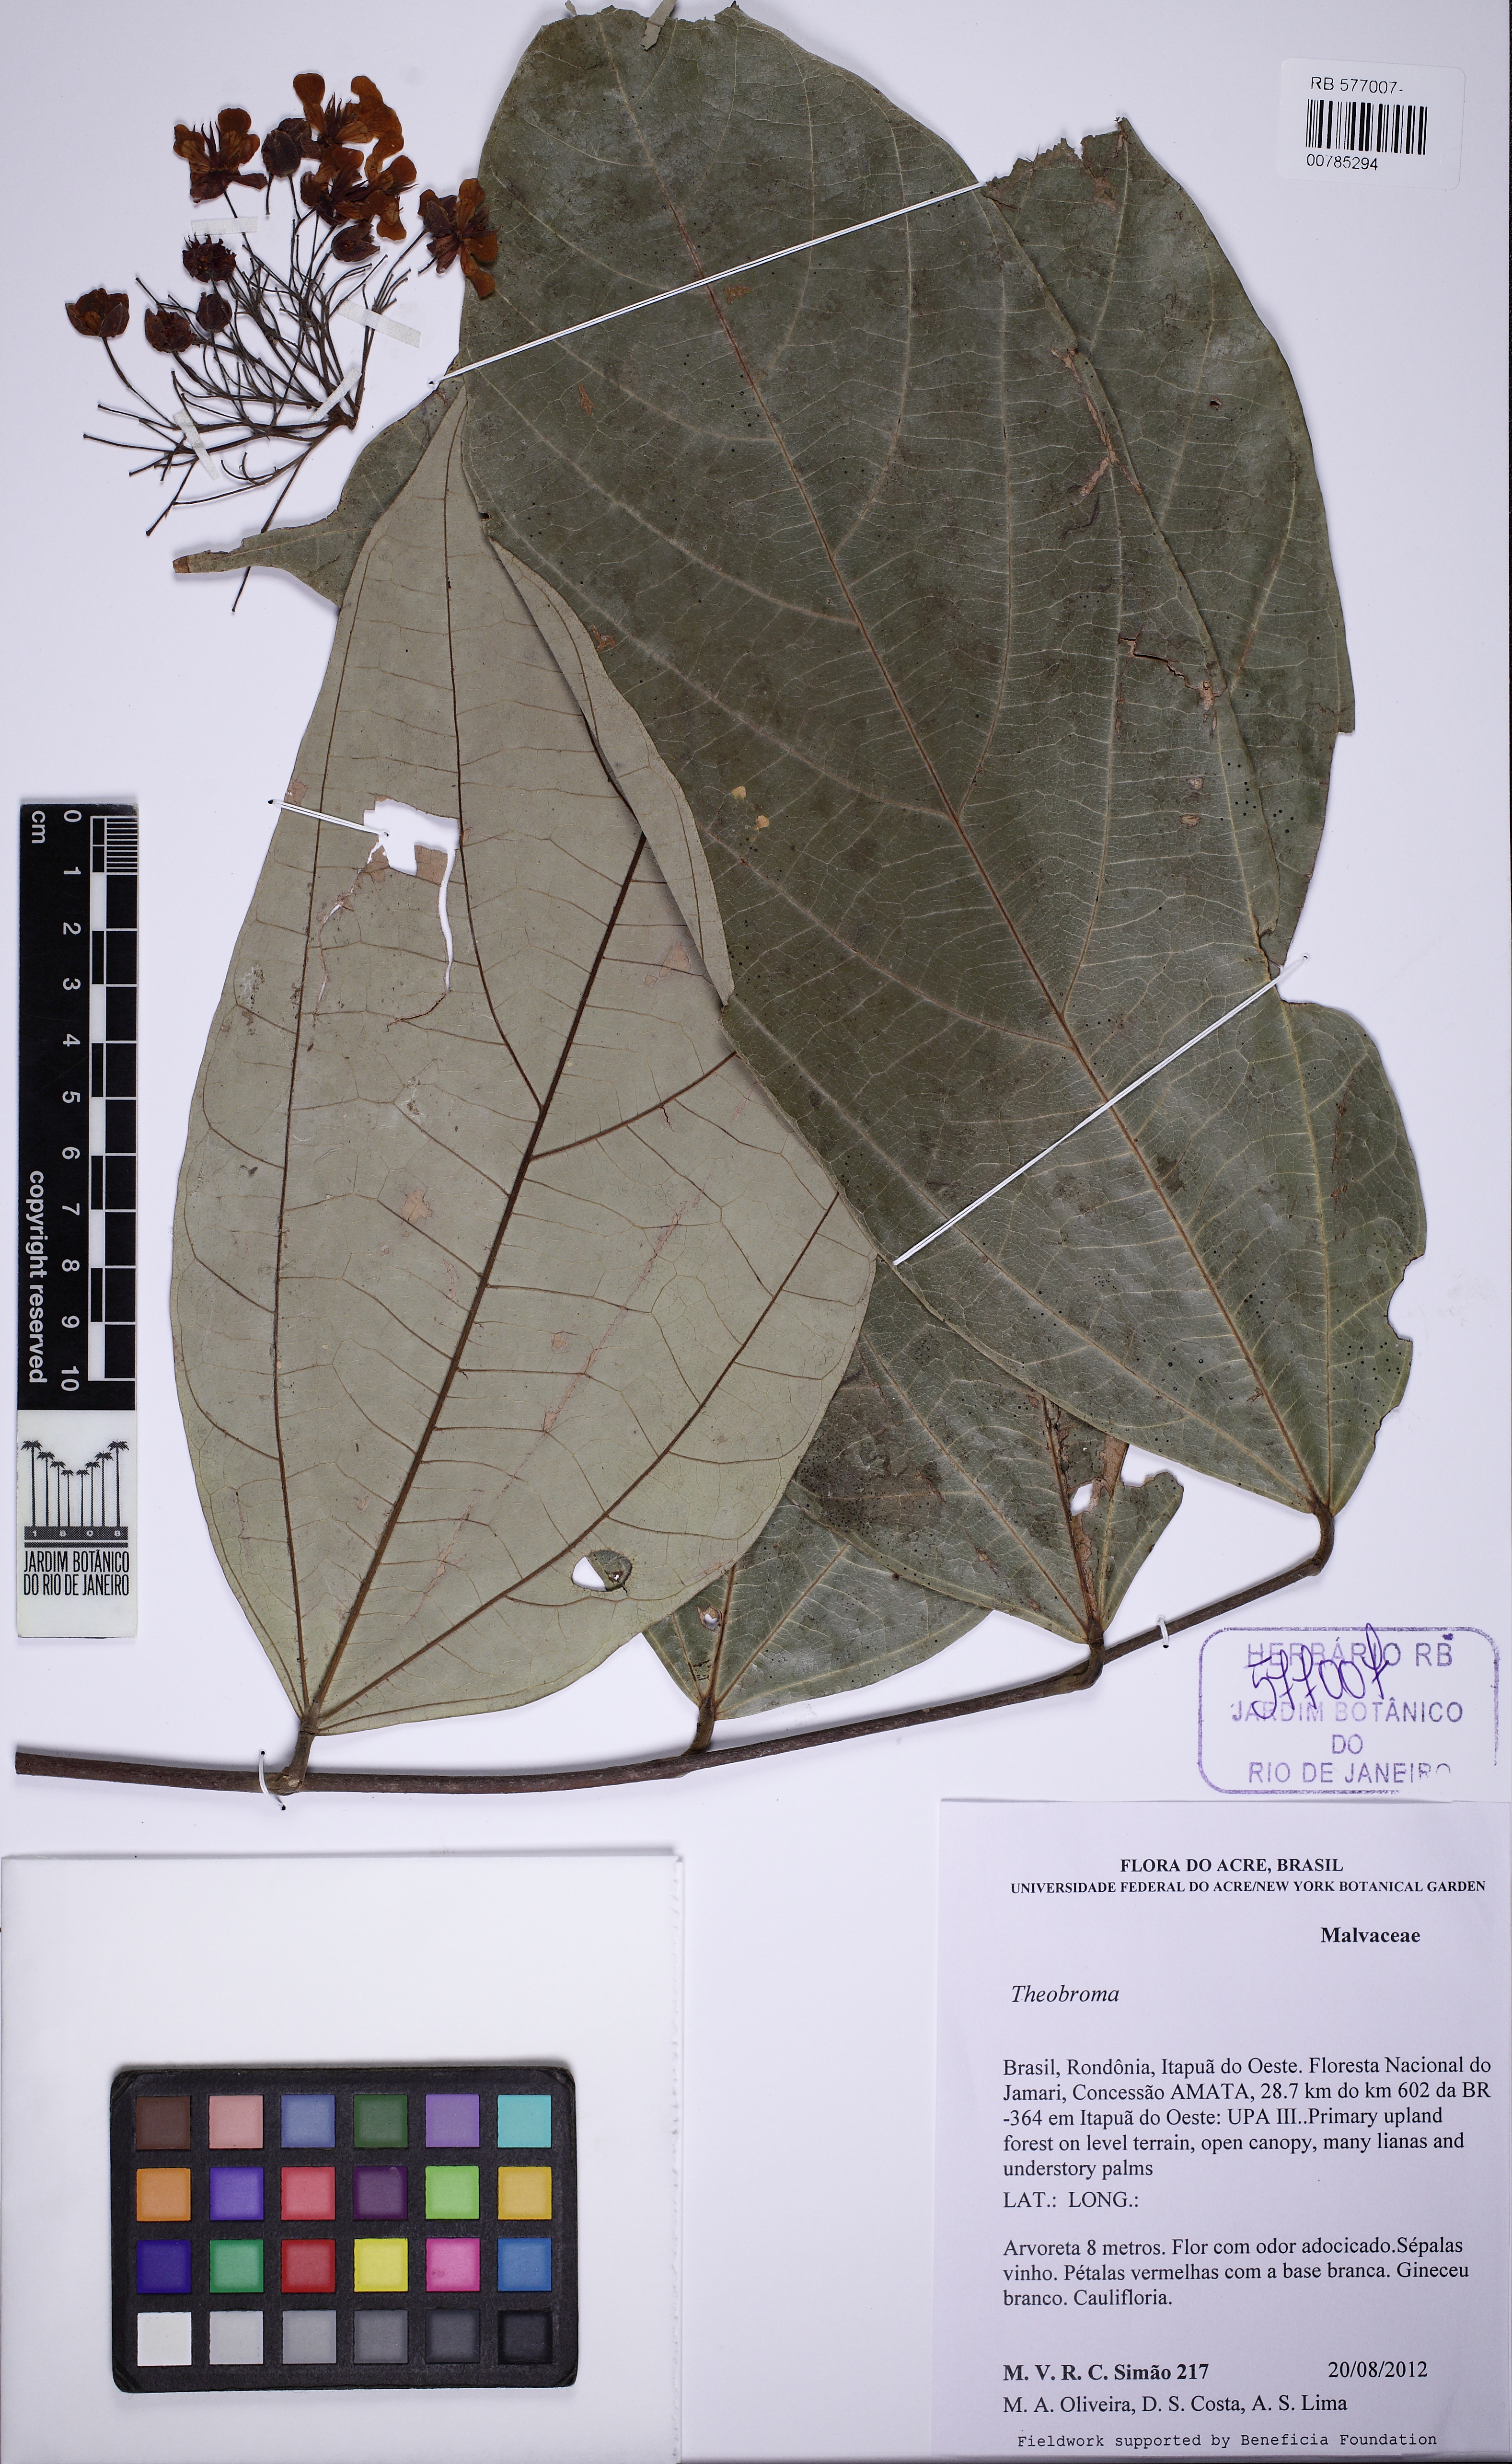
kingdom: Plantae
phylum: Tracheophyta
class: Magnoliopsida
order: Malvales
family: Malvaceae
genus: Theobroma
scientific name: Theobroma speciosum
